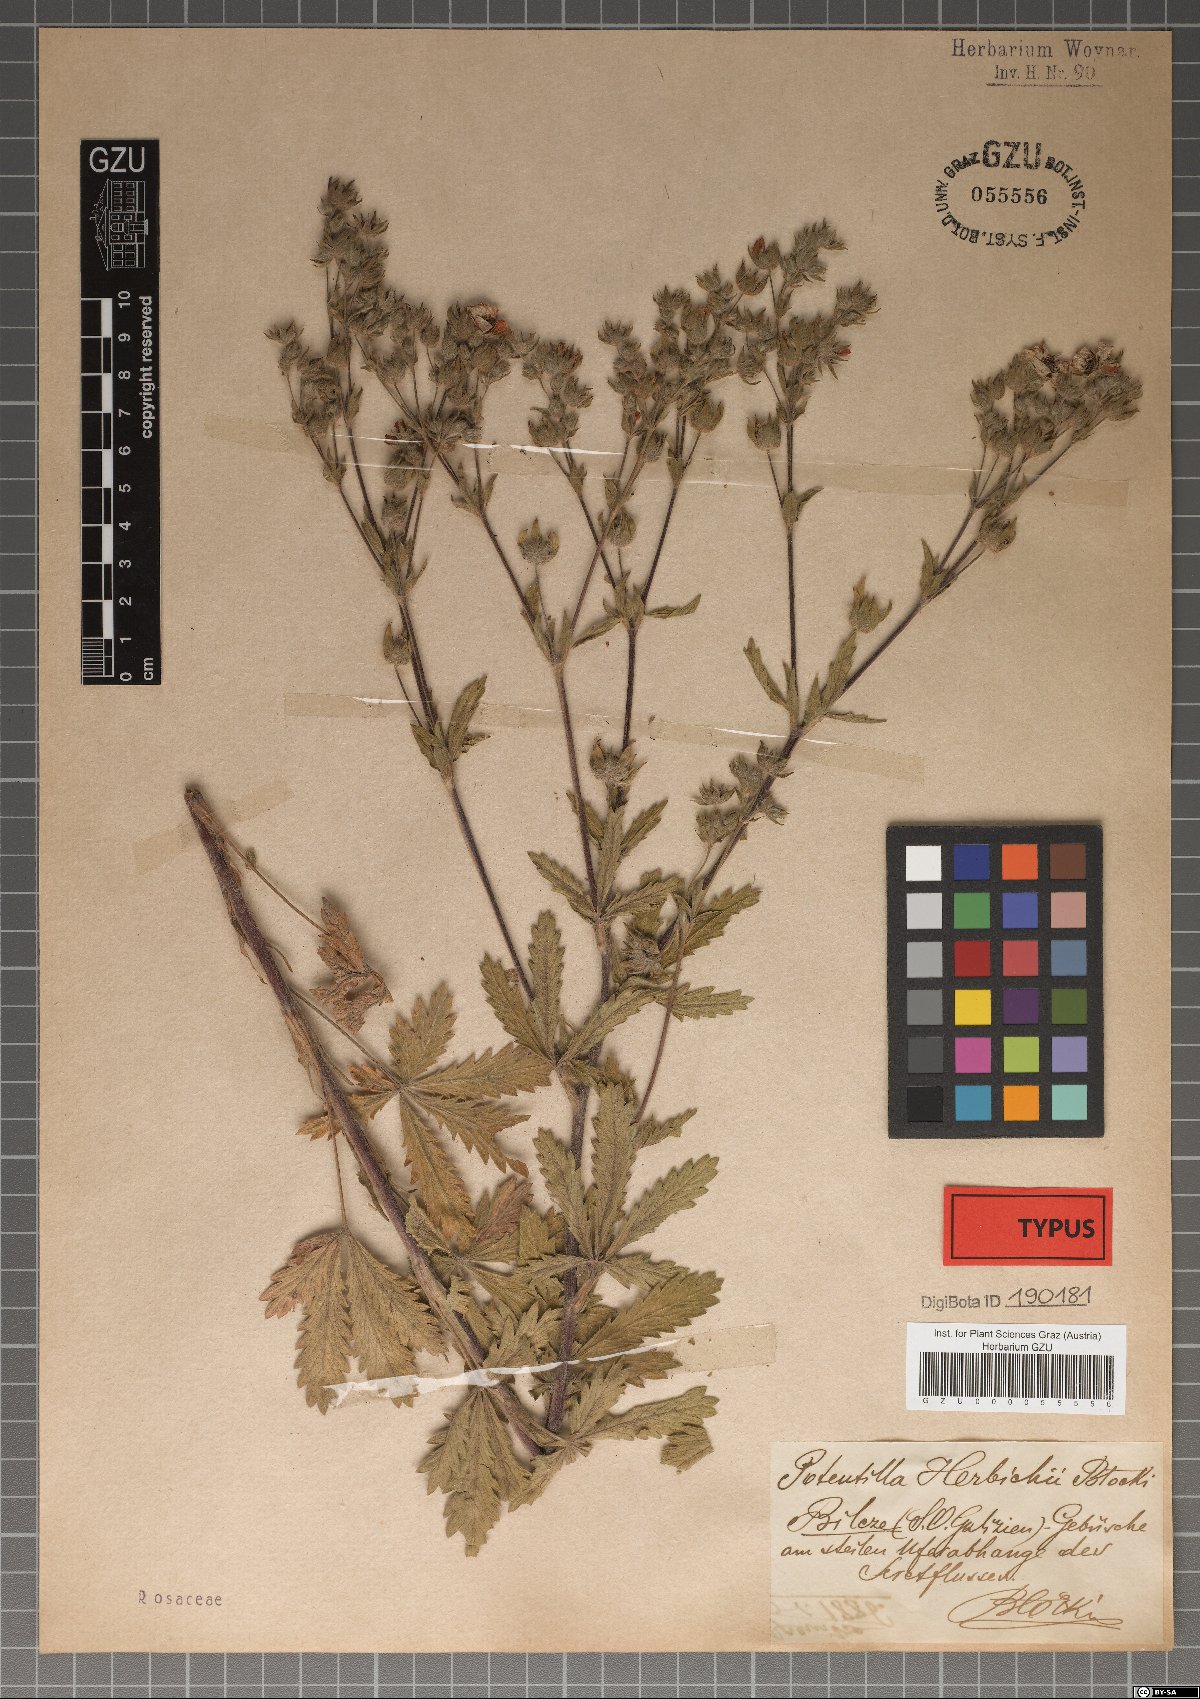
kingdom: Plantae
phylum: Tracheophyta
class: Magnoliopsida
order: Rosales
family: Rosaceae
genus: Potentilla
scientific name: Potentilla herbichii
